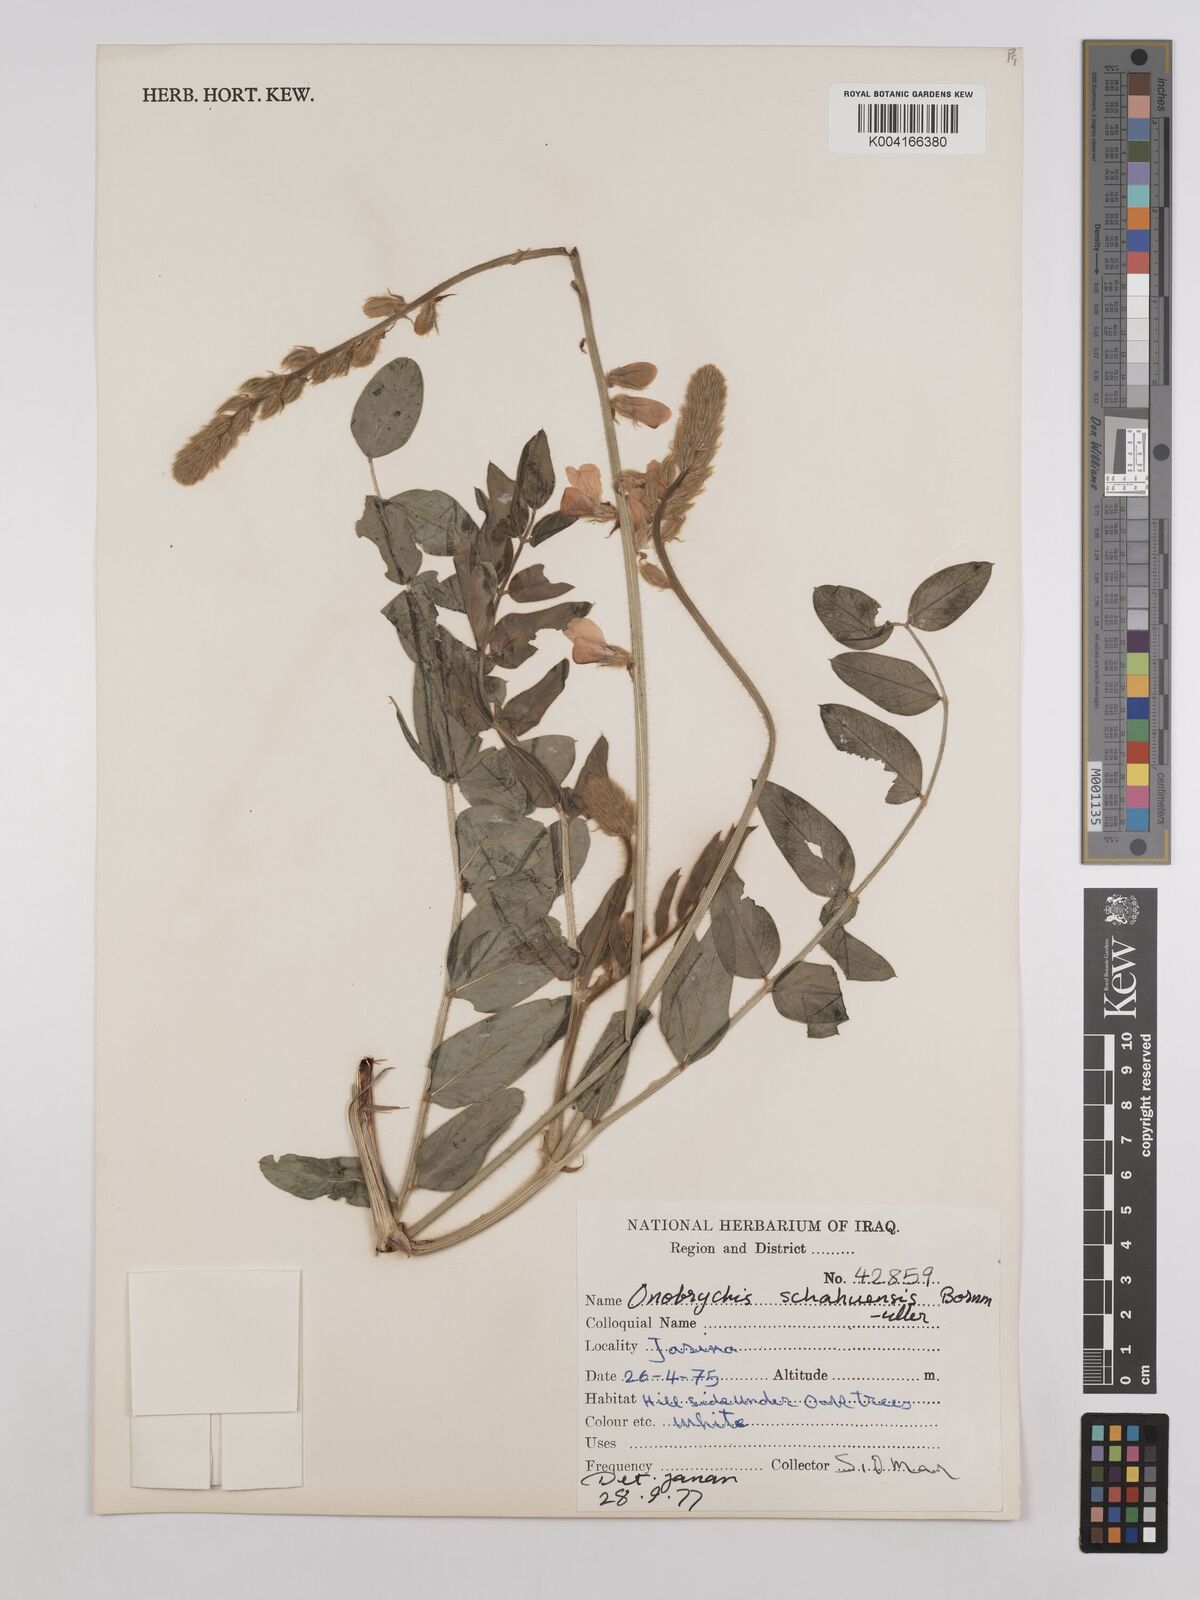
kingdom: Plantae
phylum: Tracheophyta
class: Magnoliopsida
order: Fabales
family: Fabaceae
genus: Onobrychis
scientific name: Onobrychis schahuensis
